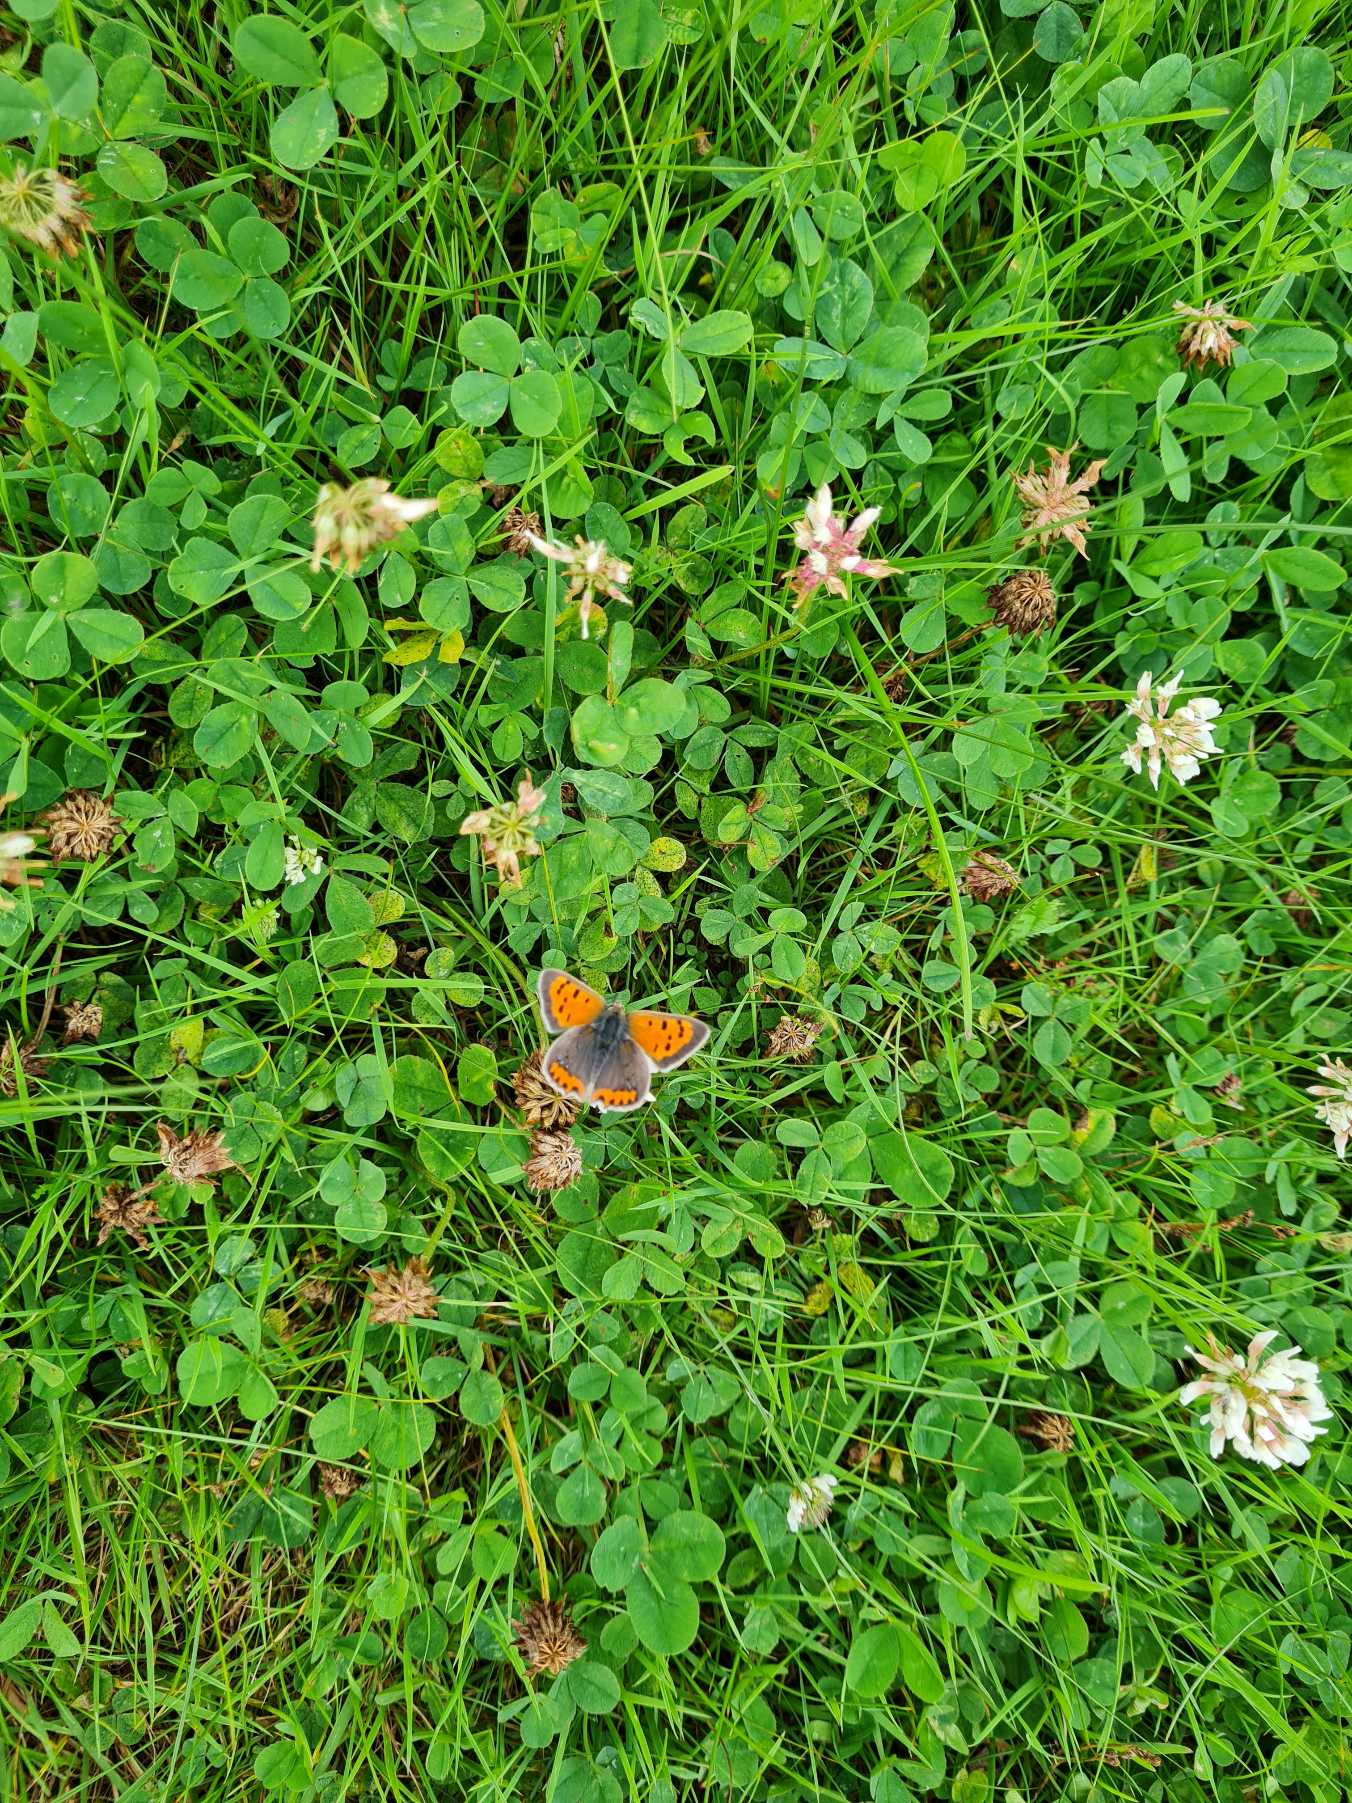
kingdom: Animalia
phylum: Arthropoda
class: Insecta
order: Lepidoptera
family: Lycaenidae
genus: Lycaena
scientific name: Lycaena phlaeas
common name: Lille ildfugl
